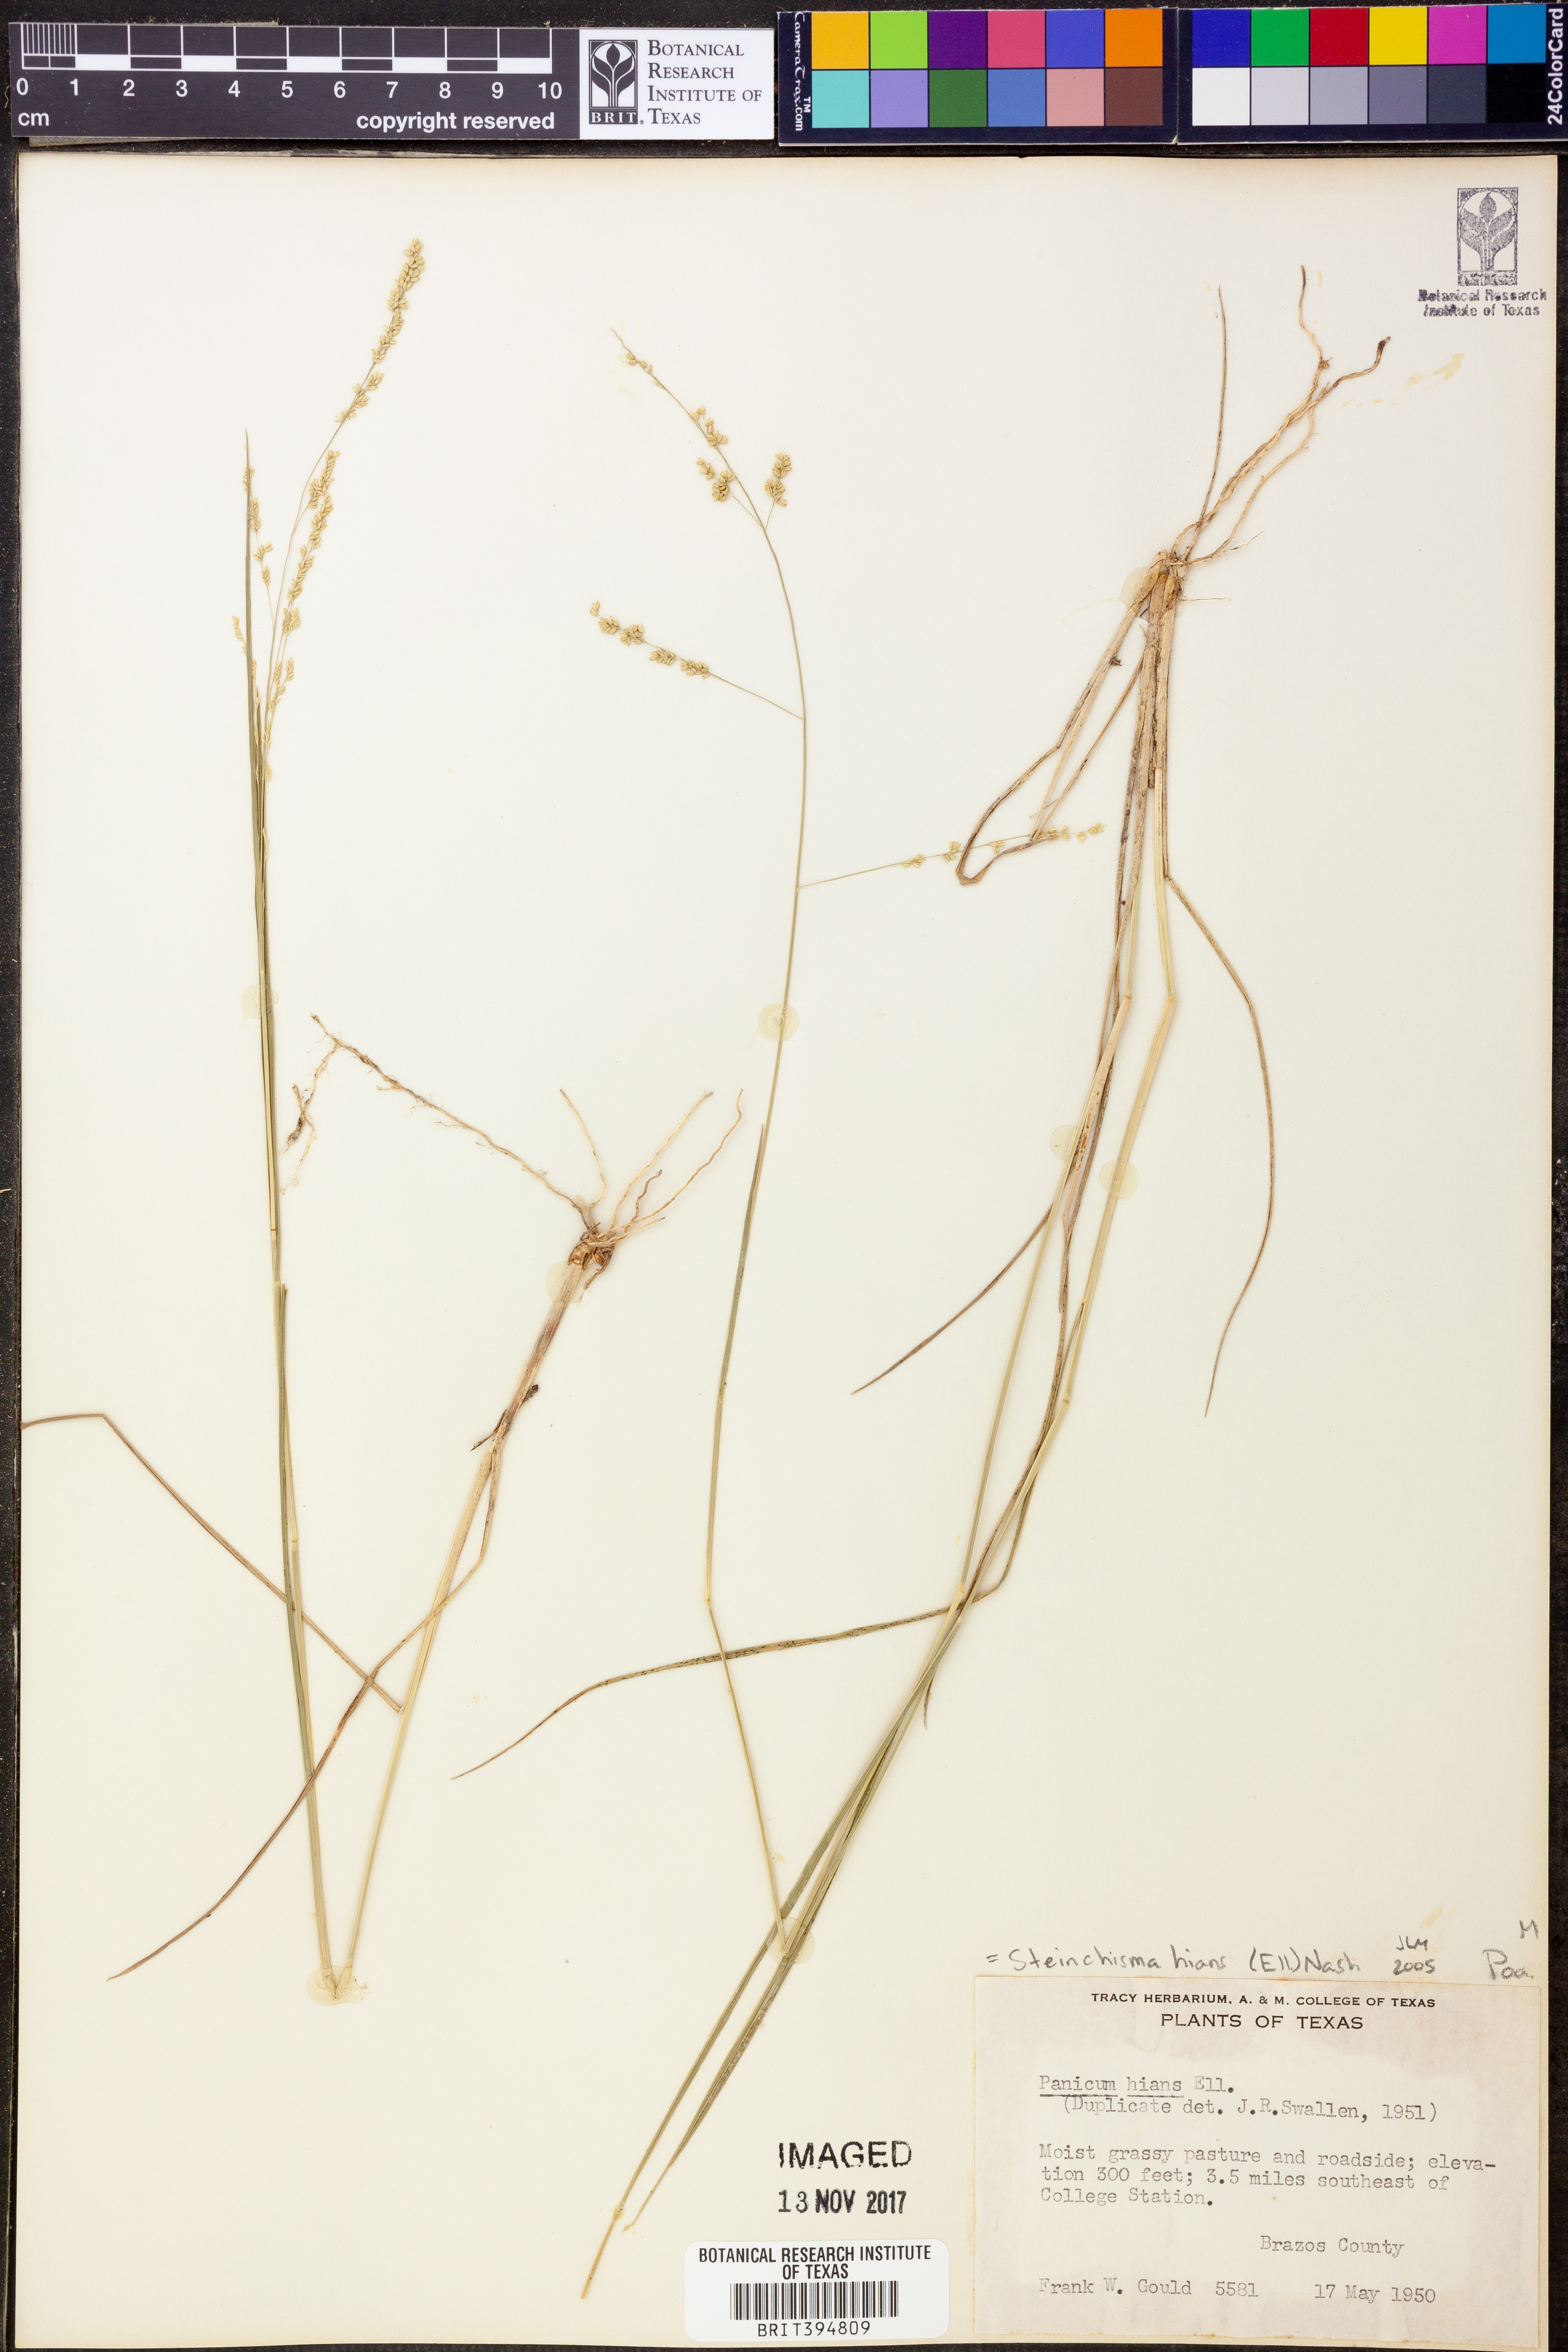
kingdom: Plantae
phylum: Tracheophyta
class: Liliopsida
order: Poales
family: Poaceae
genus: Steinchisma
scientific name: Steinchisma hians
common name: Gaping panic grass
